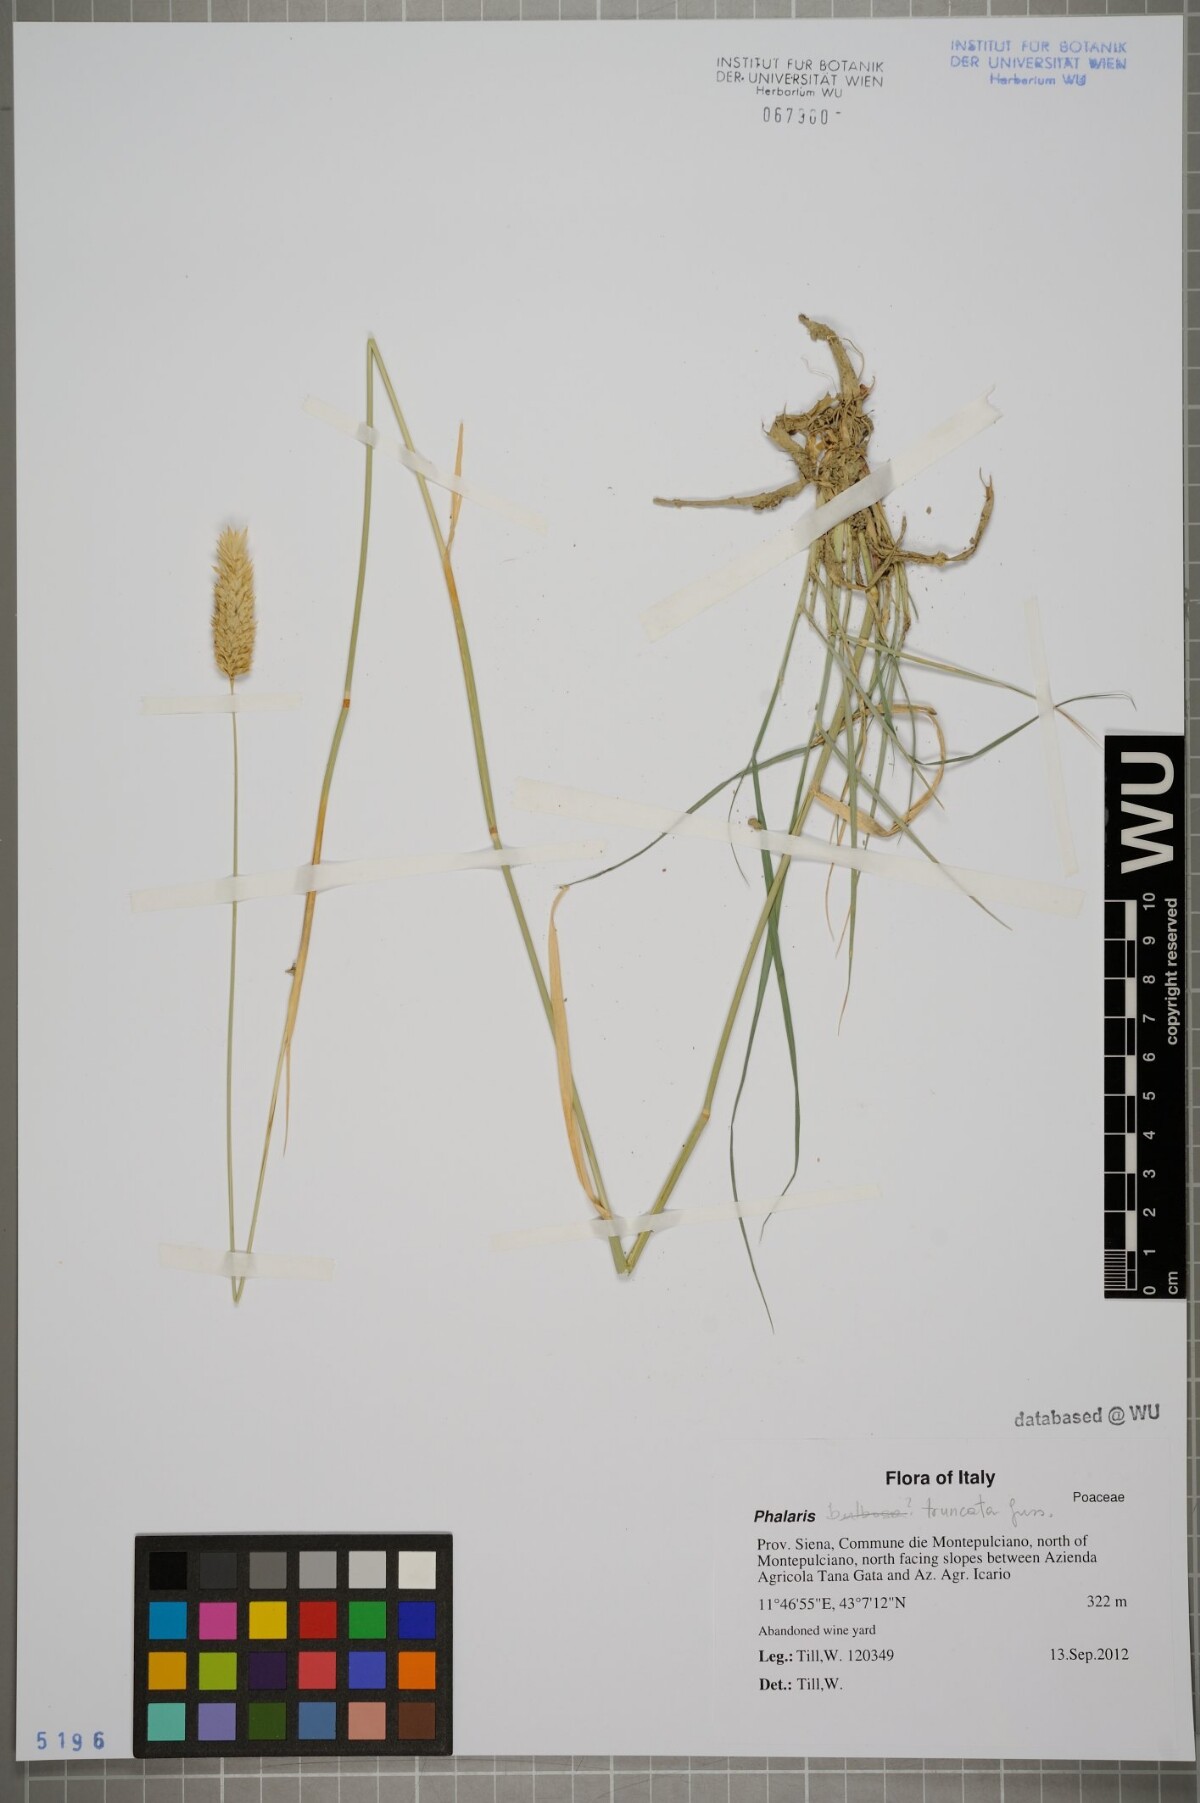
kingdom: Plantae
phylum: Tracheophyta
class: Liliopsida
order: Poales
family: Poaceae
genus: Phalaris
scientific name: Phalaris truncata
